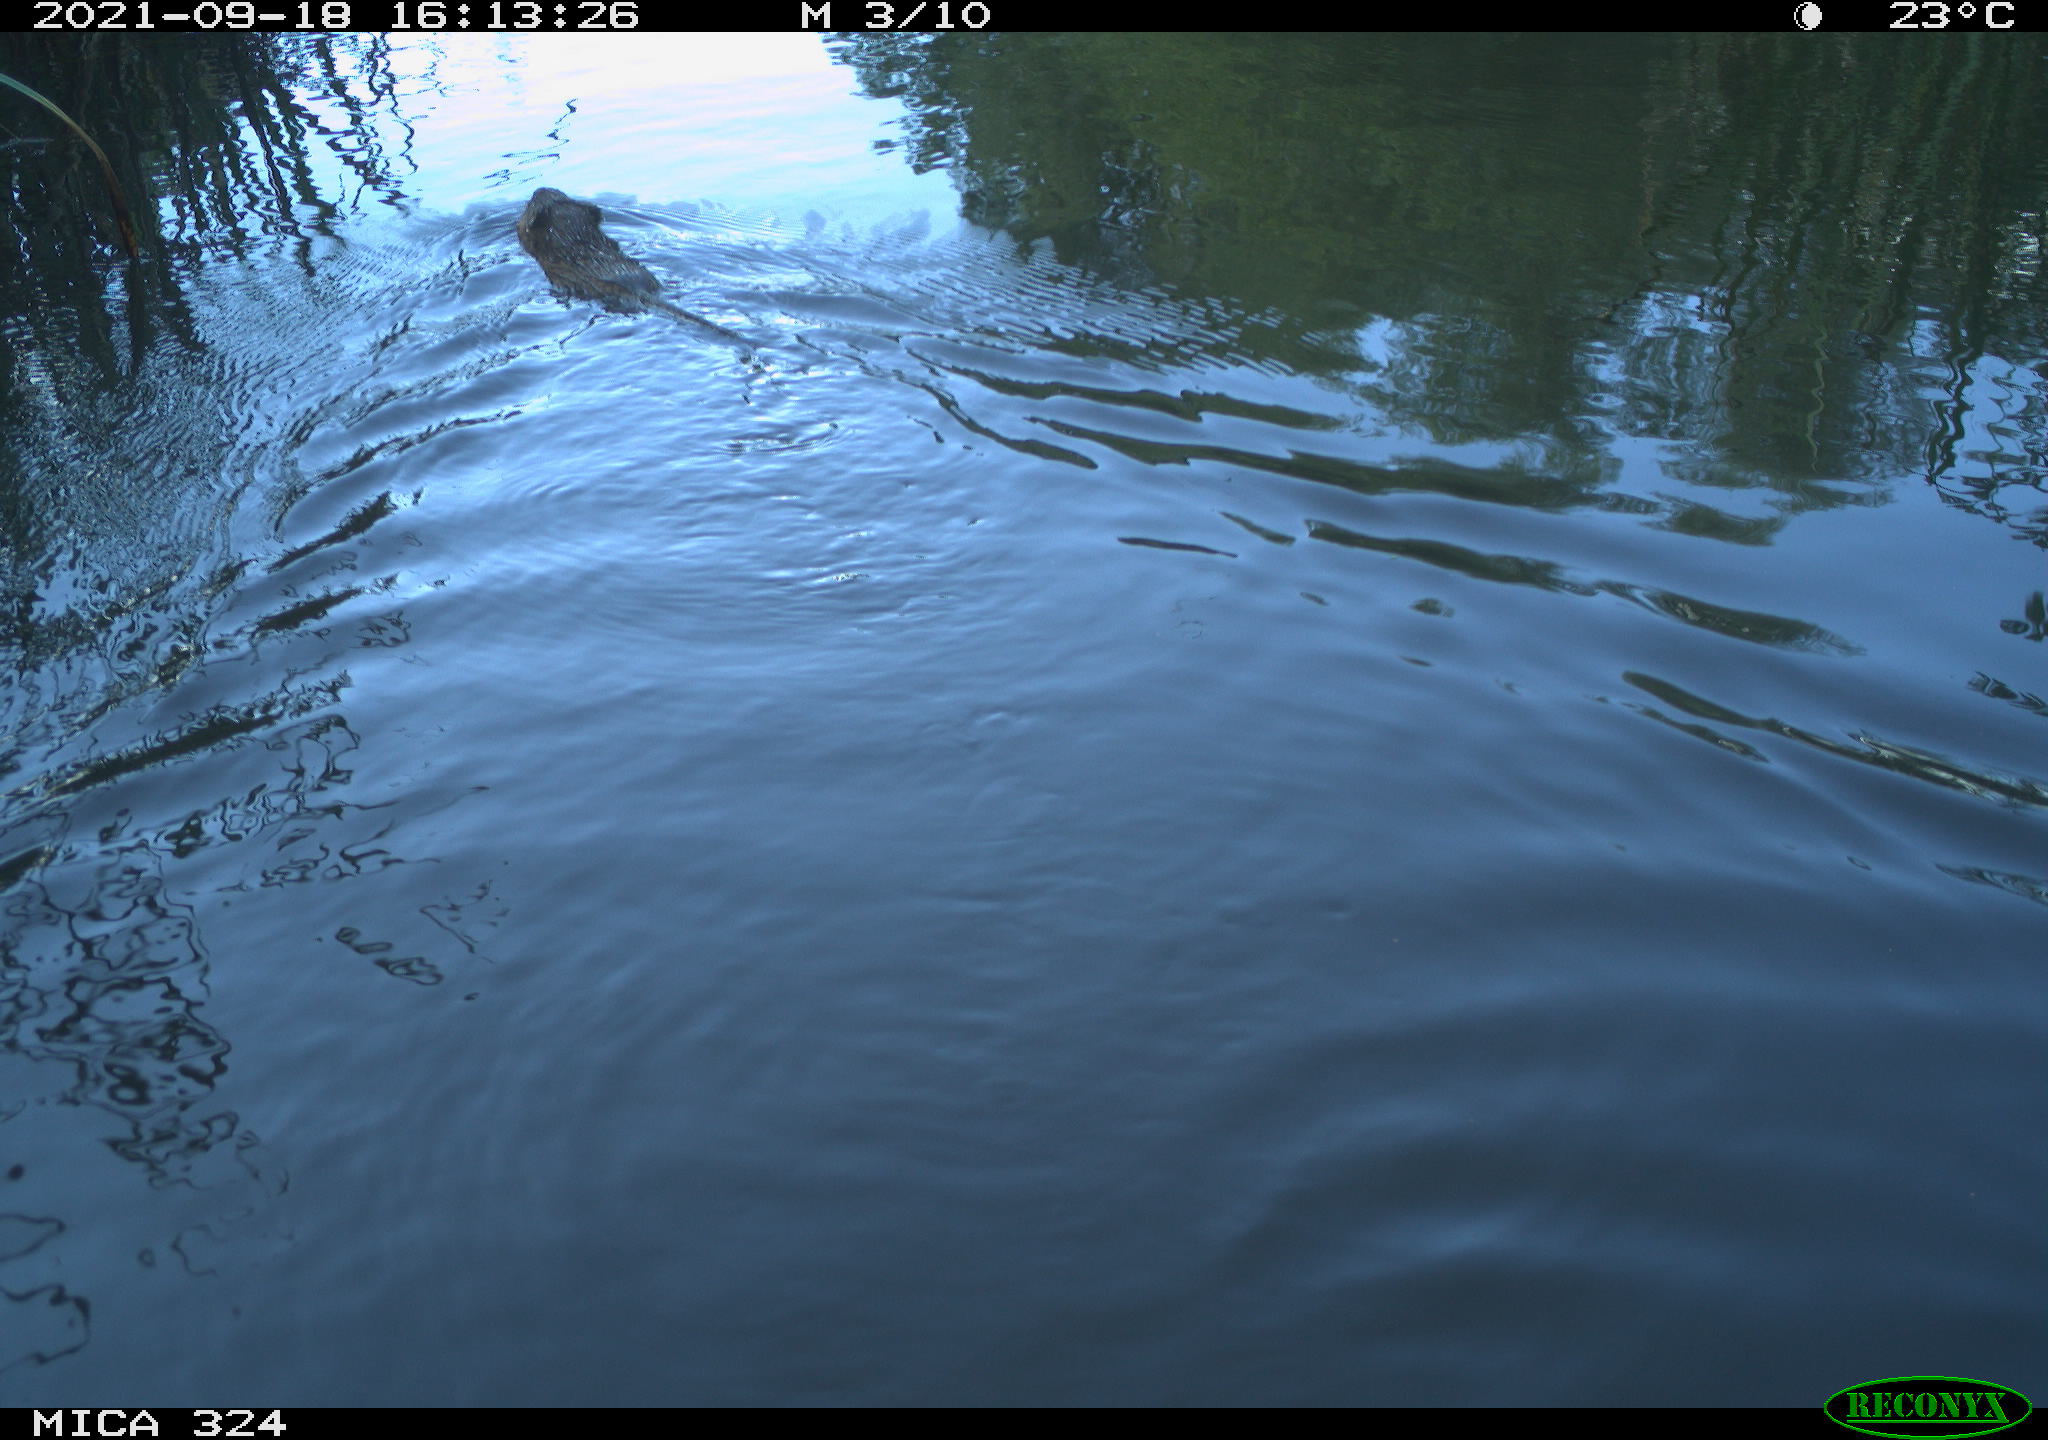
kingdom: Animalia
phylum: Chordata
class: Mammalia
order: Rodentia
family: Cricetidae
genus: Ondatra
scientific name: Ondatra zibethicus
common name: Muskrat
